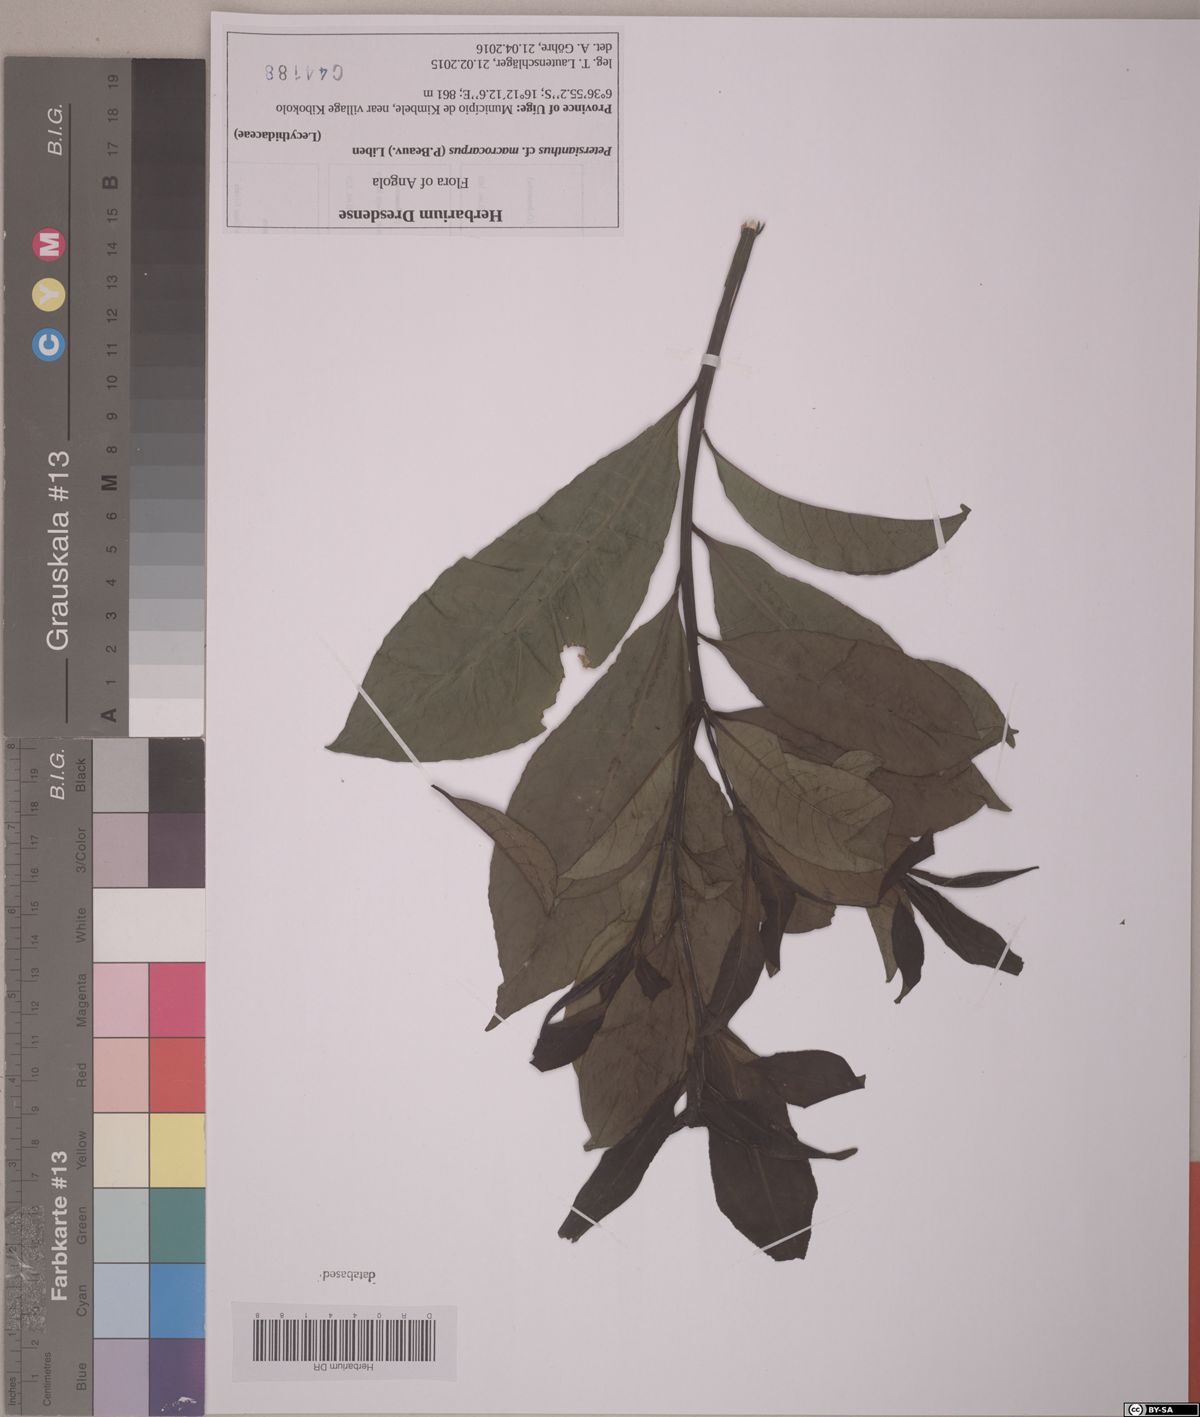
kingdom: Plantae
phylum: Tracheophyta
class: Magnoliopsida
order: Ericales
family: Lecythidaceae
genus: Petersianthus
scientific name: Petersianthus macrocarpus
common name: Essia
